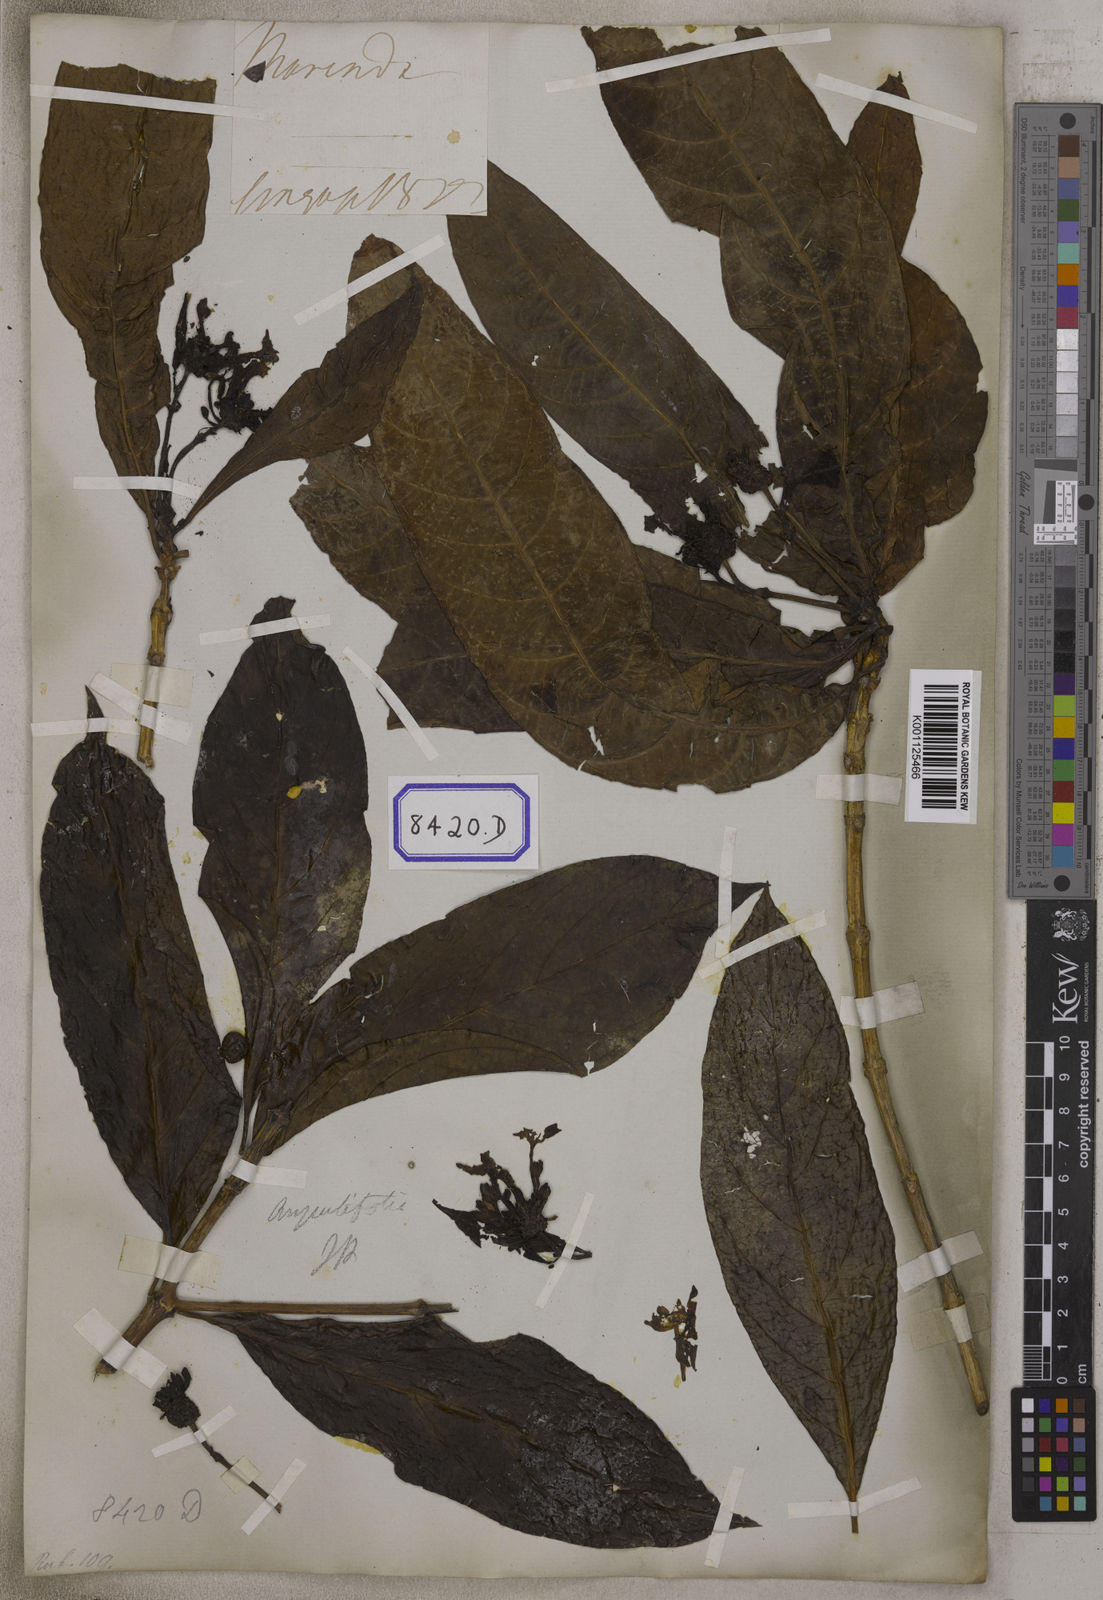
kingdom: Plantae
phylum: Tracheophyta
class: Magnoliopsida
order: Gentianales
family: Rubiaceae
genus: Morinda
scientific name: Morinda angustifolia
